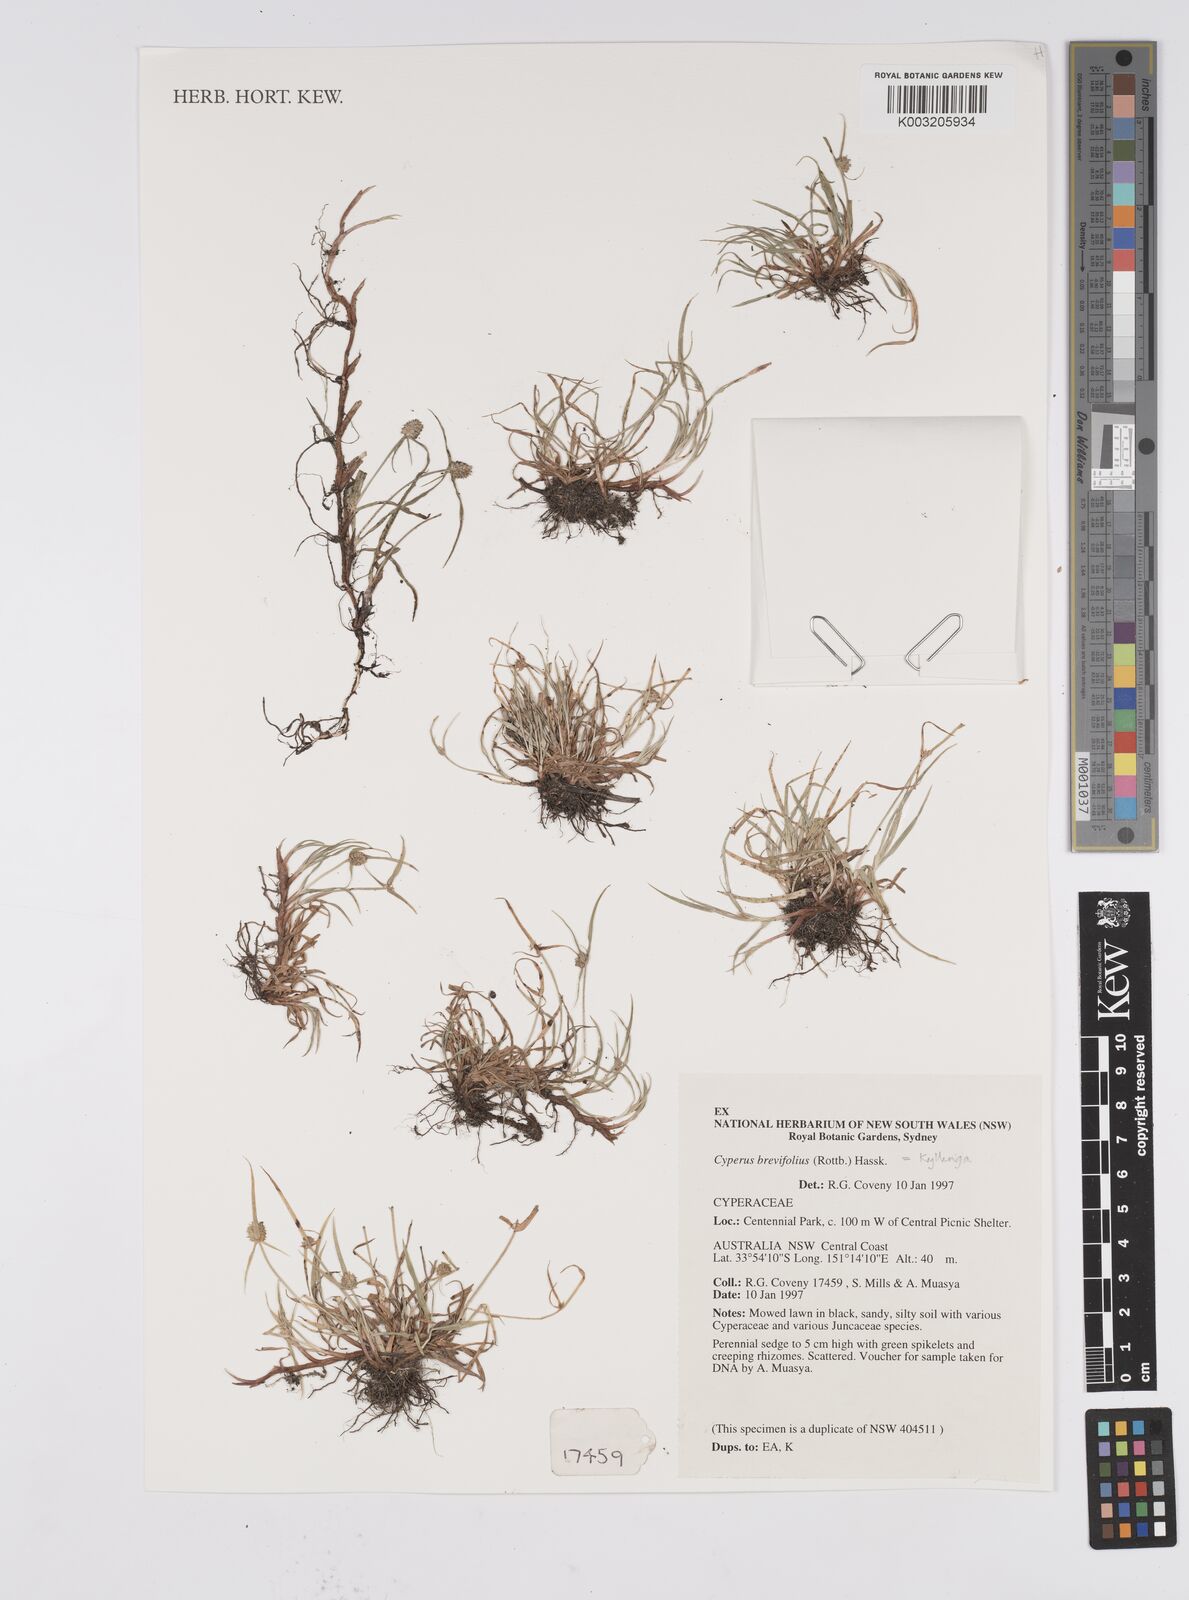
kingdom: Plantae
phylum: Tracheophyta
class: Liliopsida
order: Poales
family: Cyperaceae
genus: Cyperus
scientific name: Cyperus brevifolius
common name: Globe kyllinga
